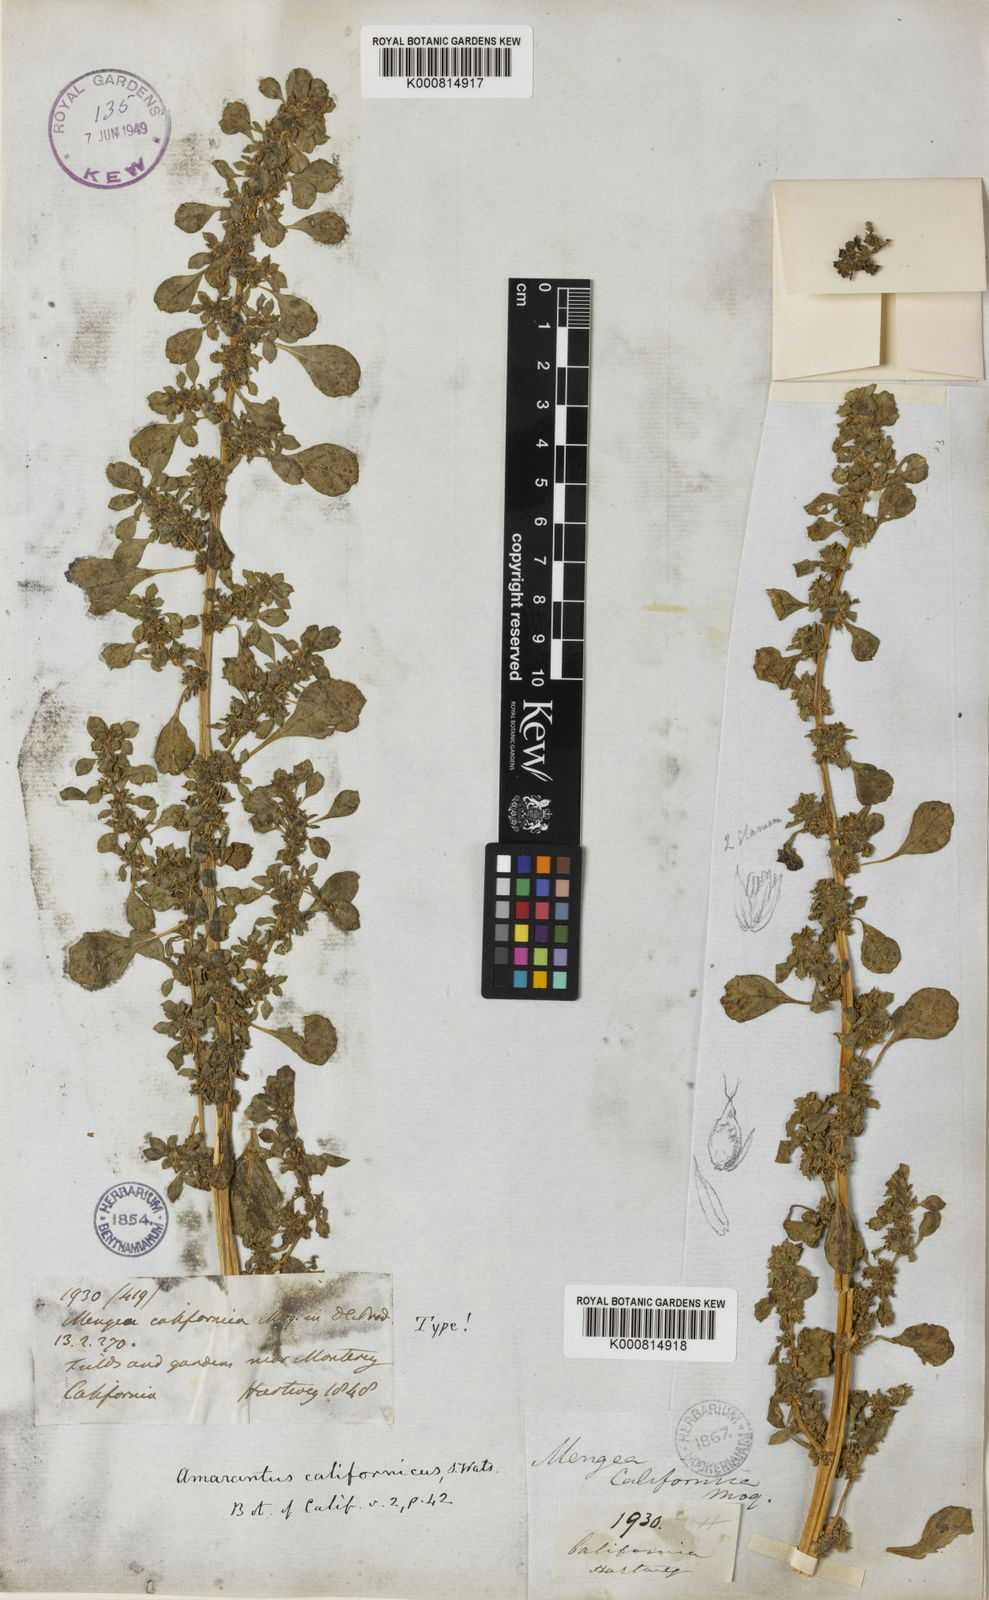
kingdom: Plantae
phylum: Tracheophyta
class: Magnoliopsida
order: Caryophyllales
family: Amaranthaceae
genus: Amaranthus
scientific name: Amaranthus californicus
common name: California amaranth
